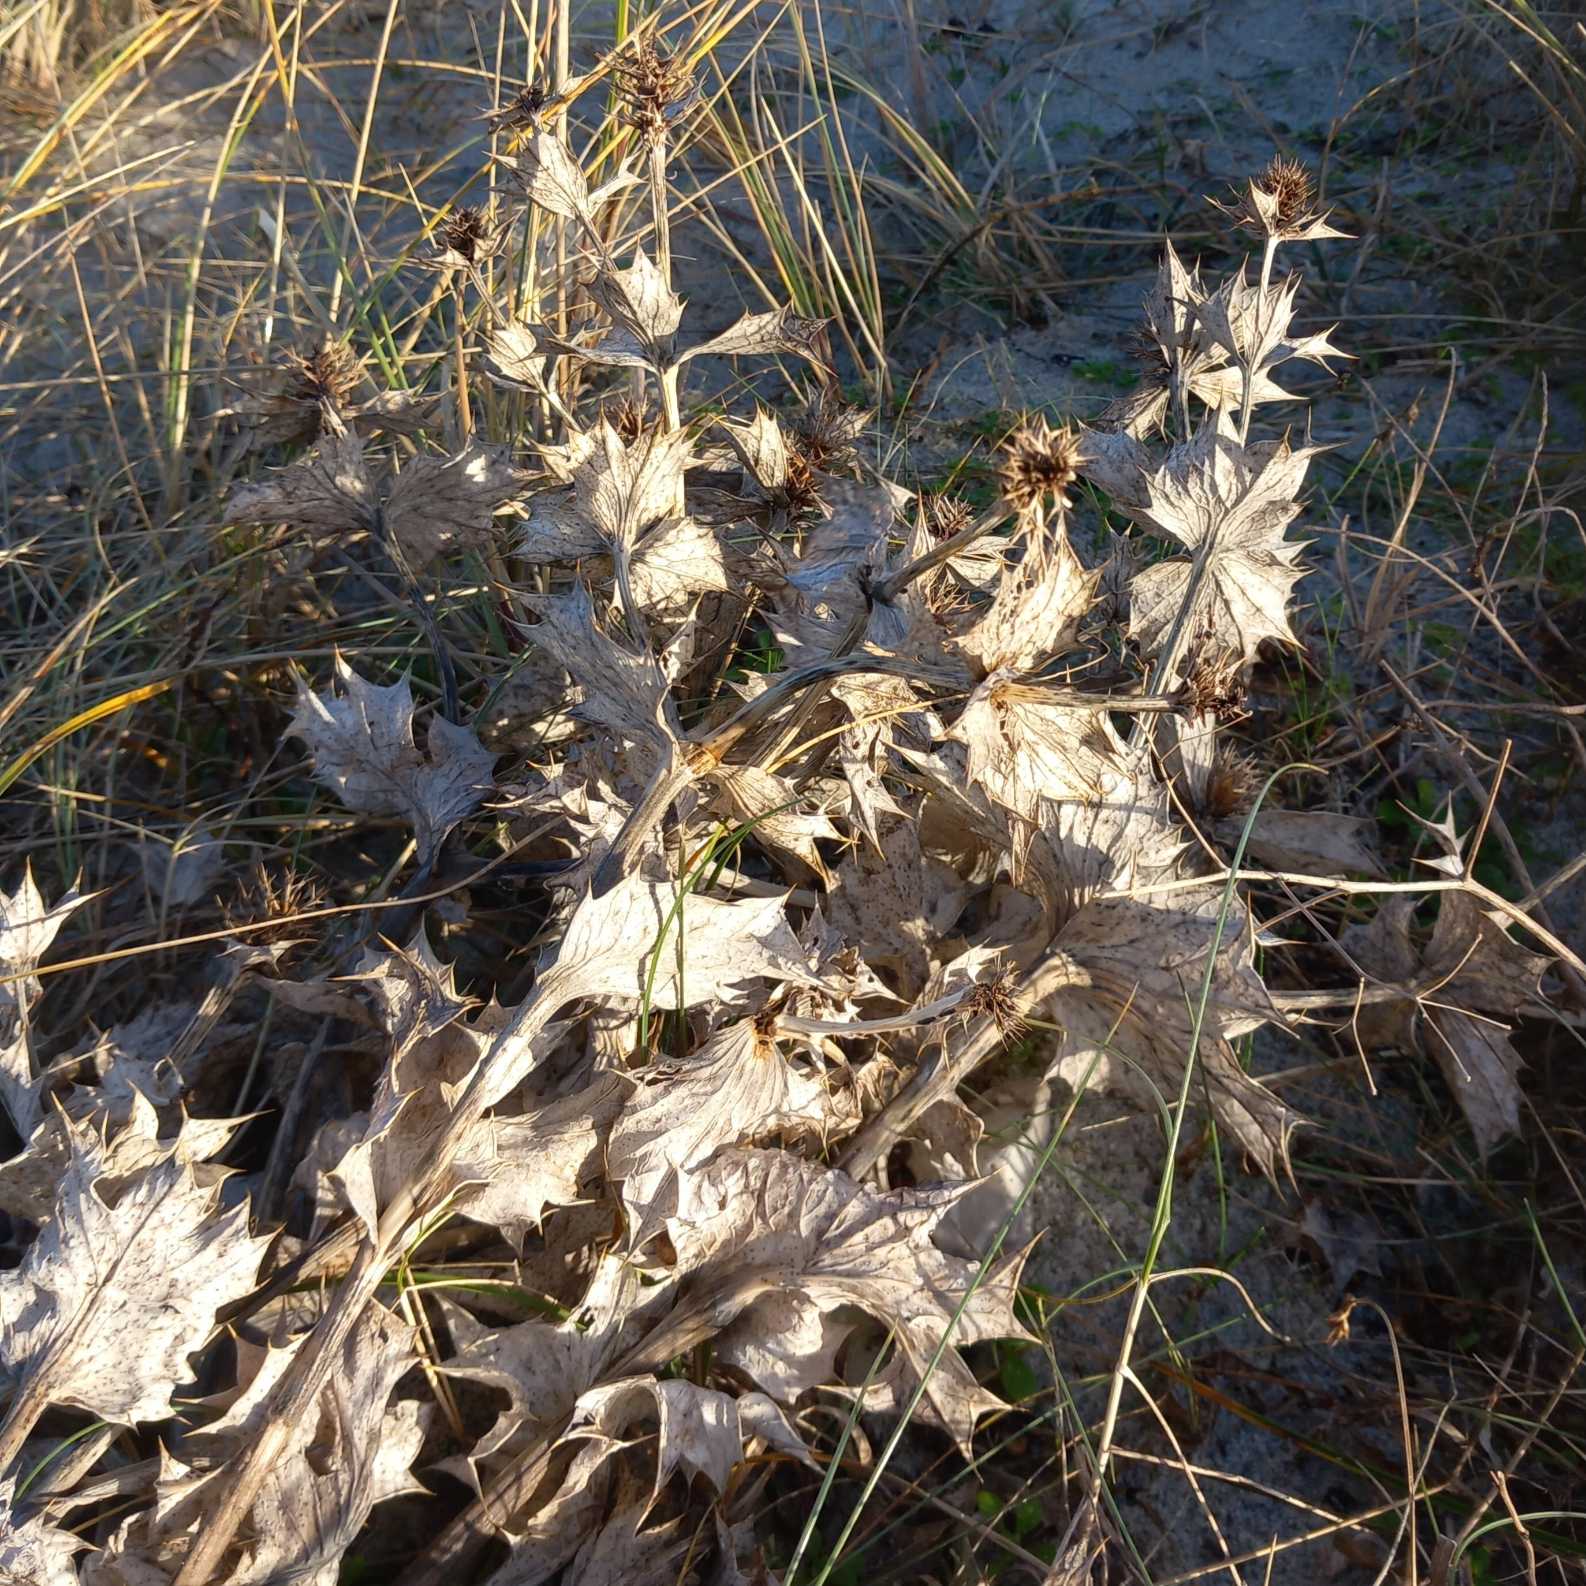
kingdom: Plantae
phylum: Tracheophyta
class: Magnoliopsida
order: Apiales
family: Apiaceae
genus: Eryngium
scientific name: Eryngium maritimum
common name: Strand-mandstro
